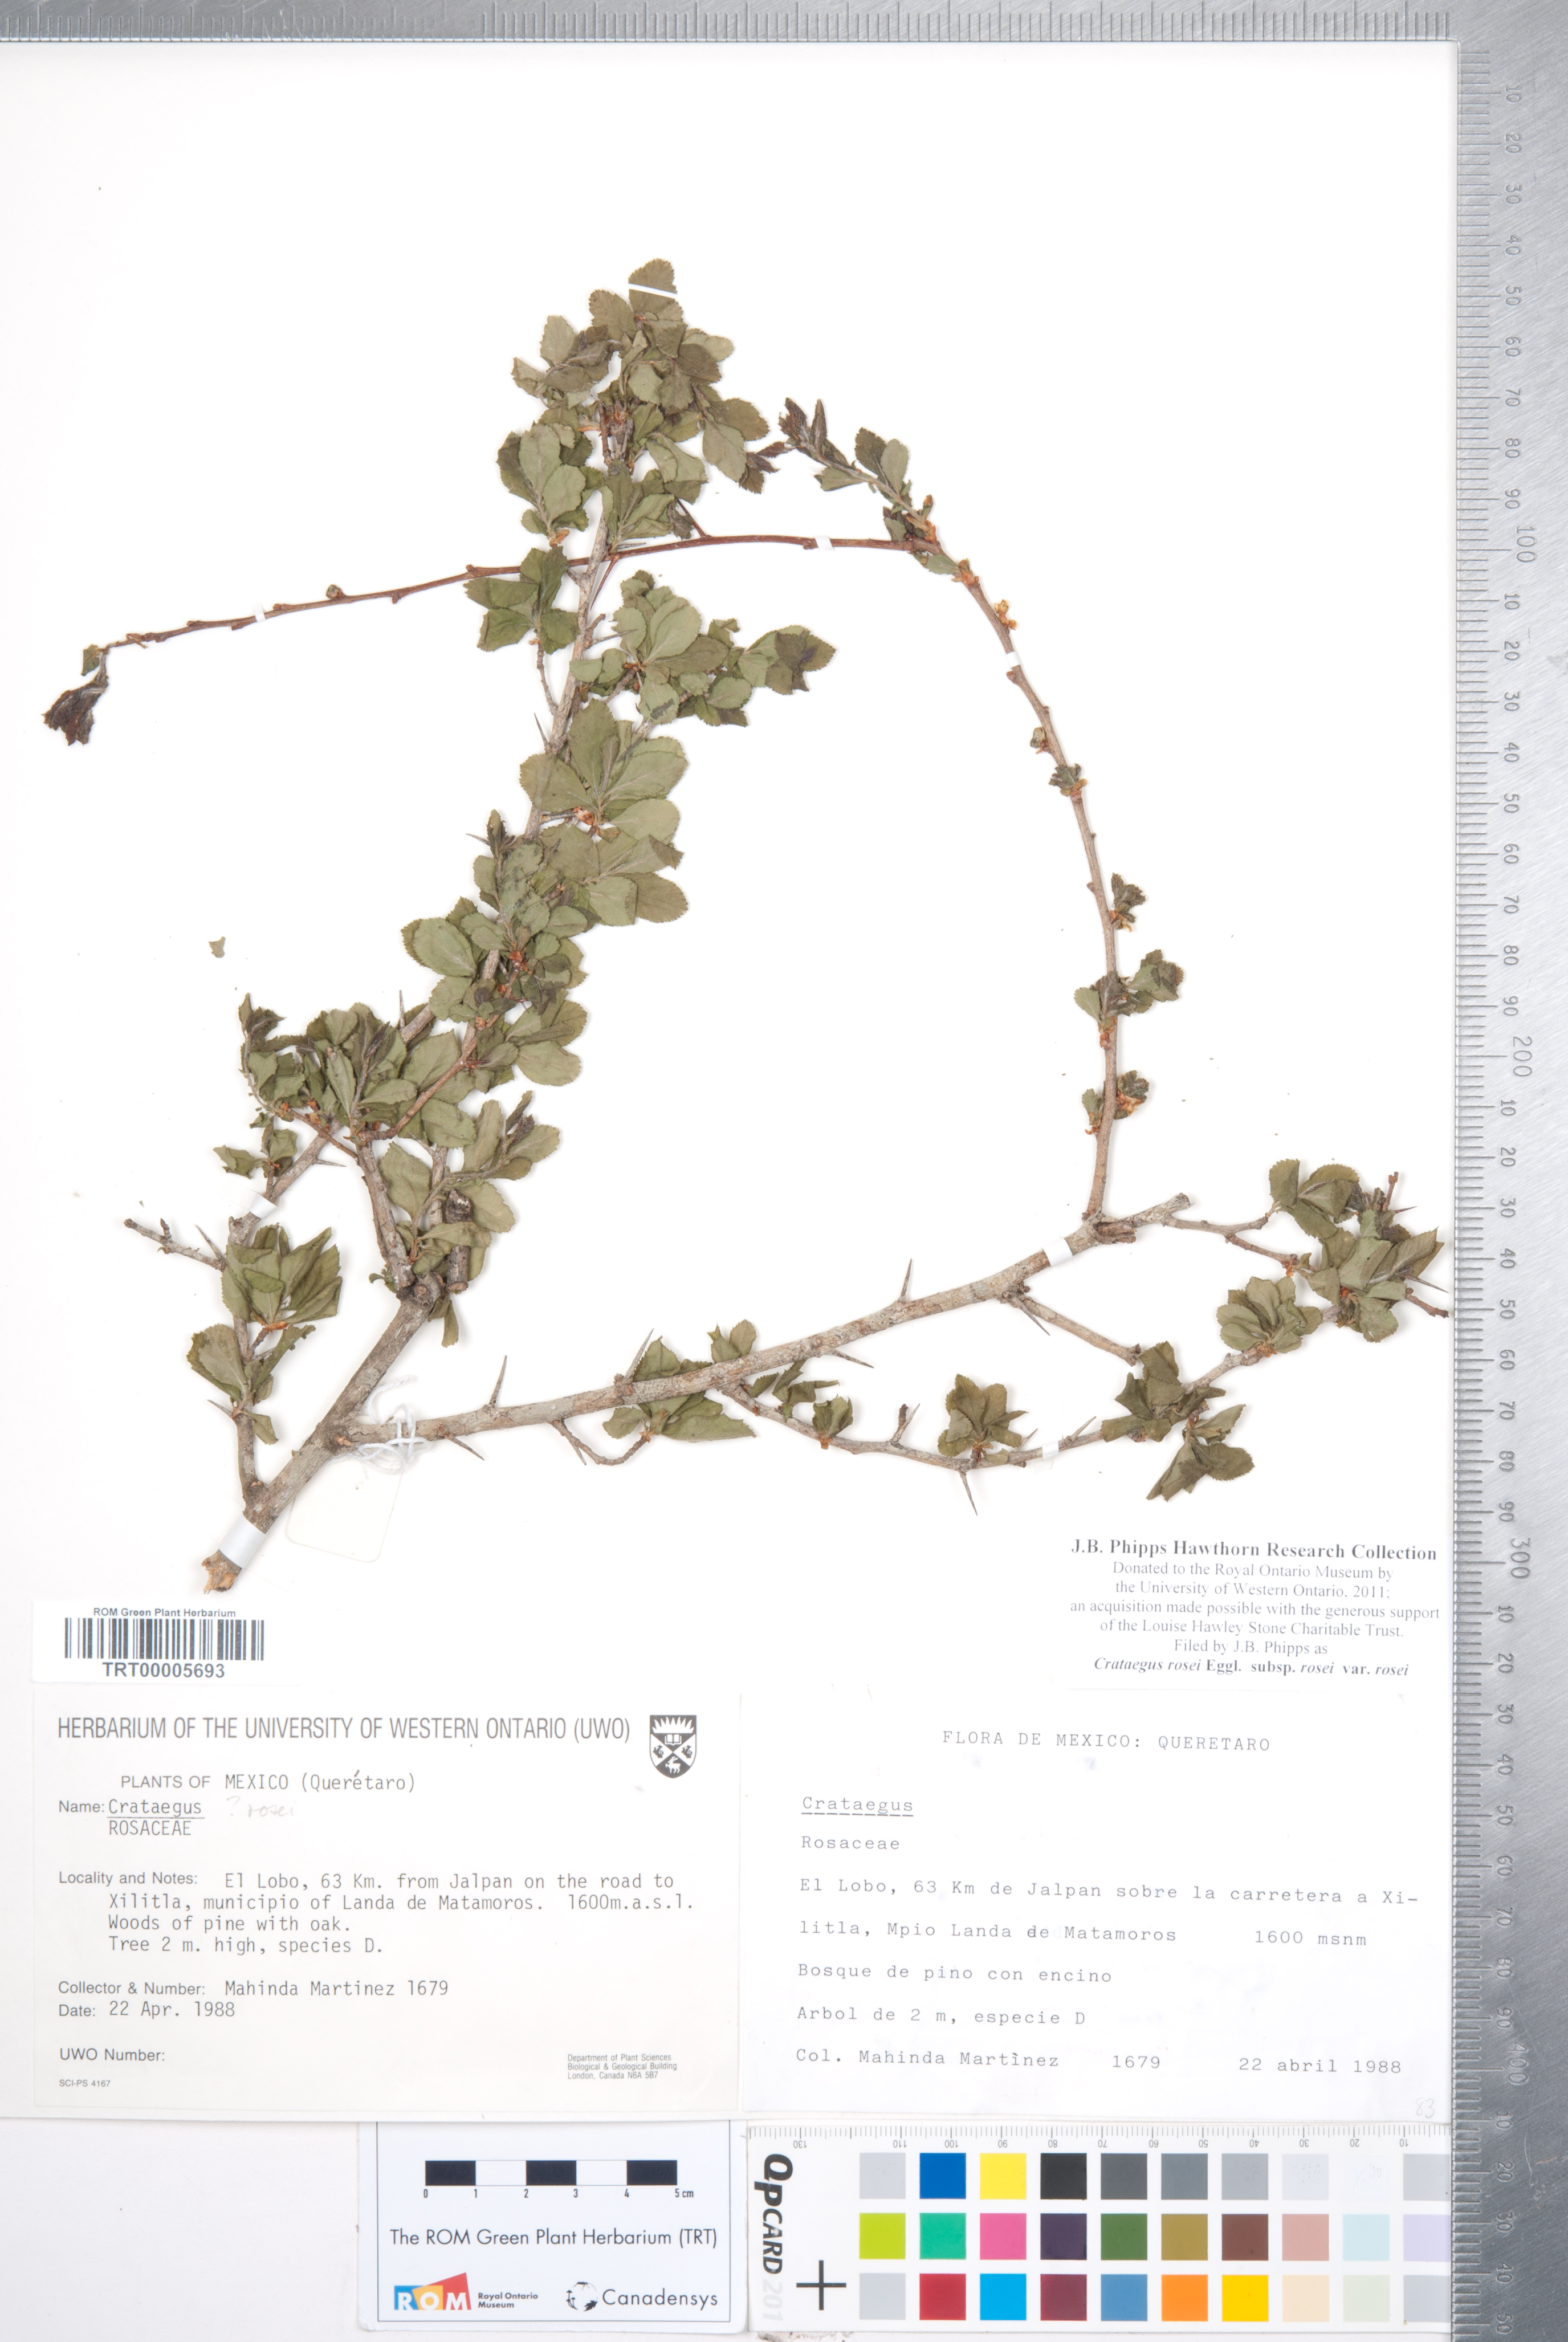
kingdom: Plantae
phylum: Tracheophyta
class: Magnoliopsida
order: Rosales
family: Rosaceae
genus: Crataegus
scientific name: Crataegus rosei
